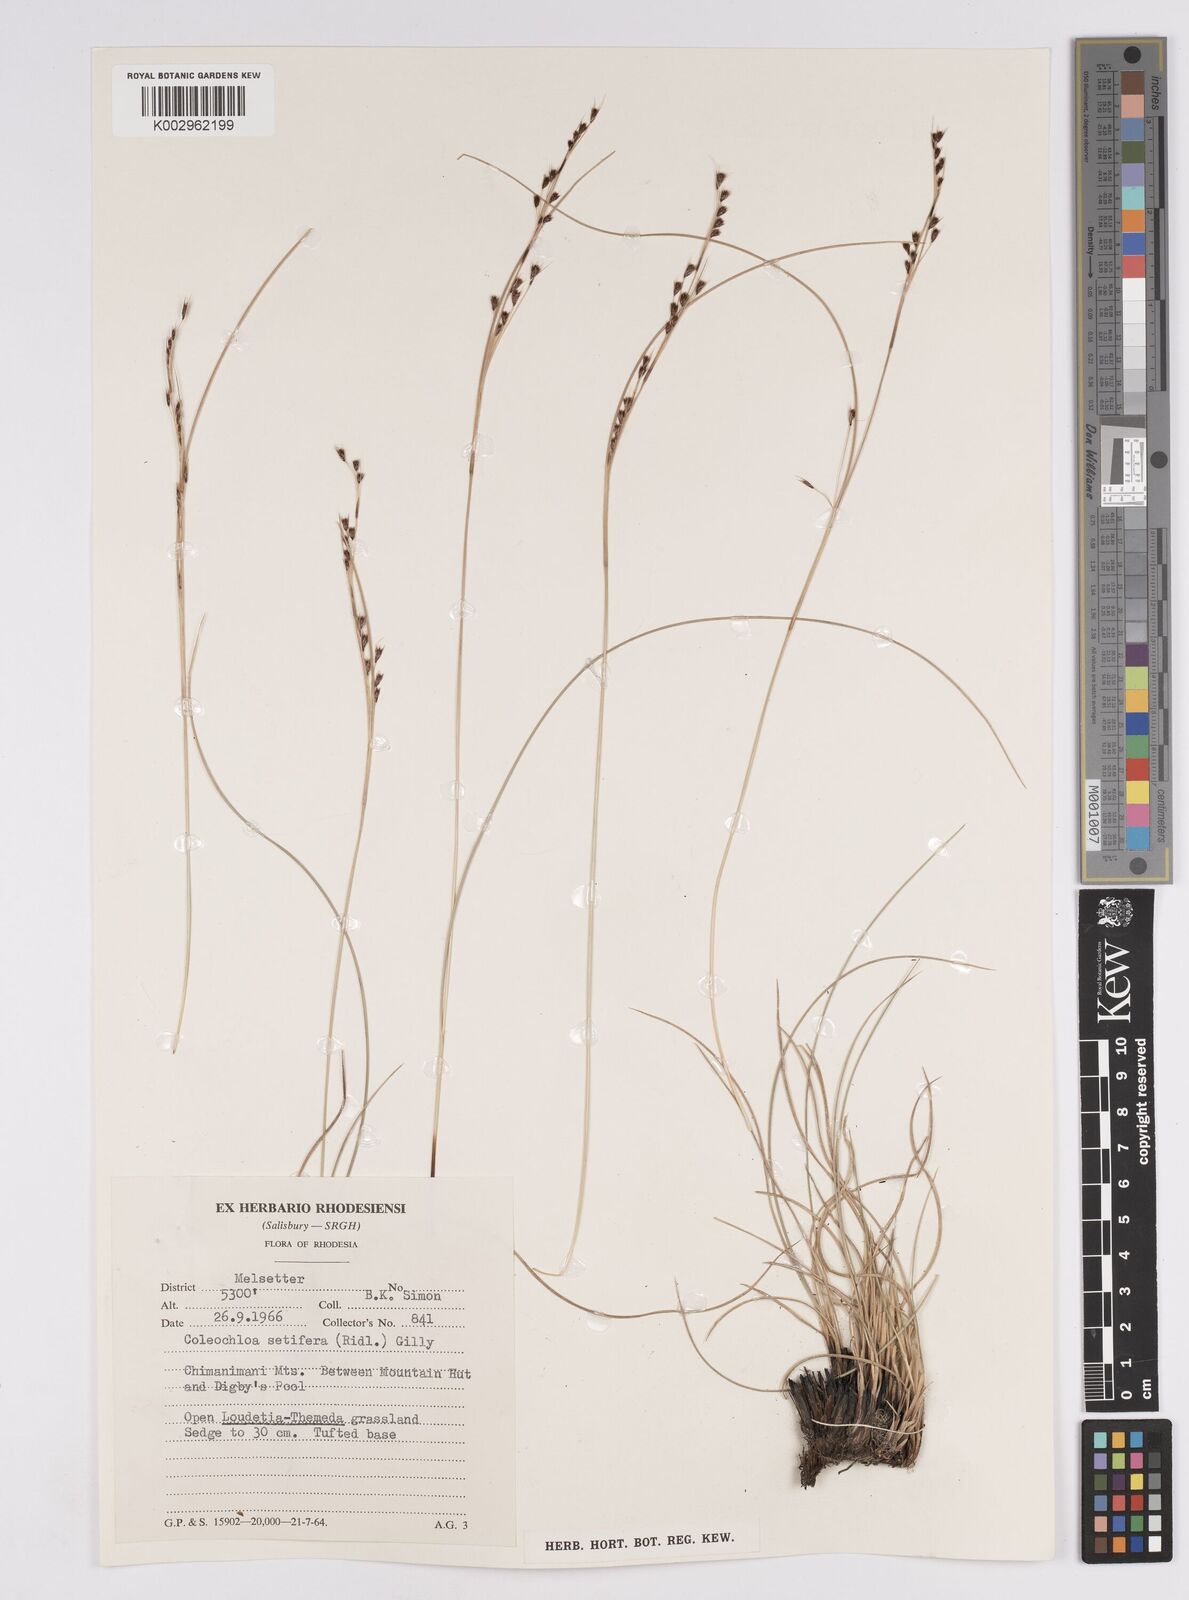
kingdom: Plantae
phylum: Tracheophyta
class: Liliopsida
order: Poales
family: Cyperaceae
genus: Coleochloa
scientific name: Coleochloa setifera
